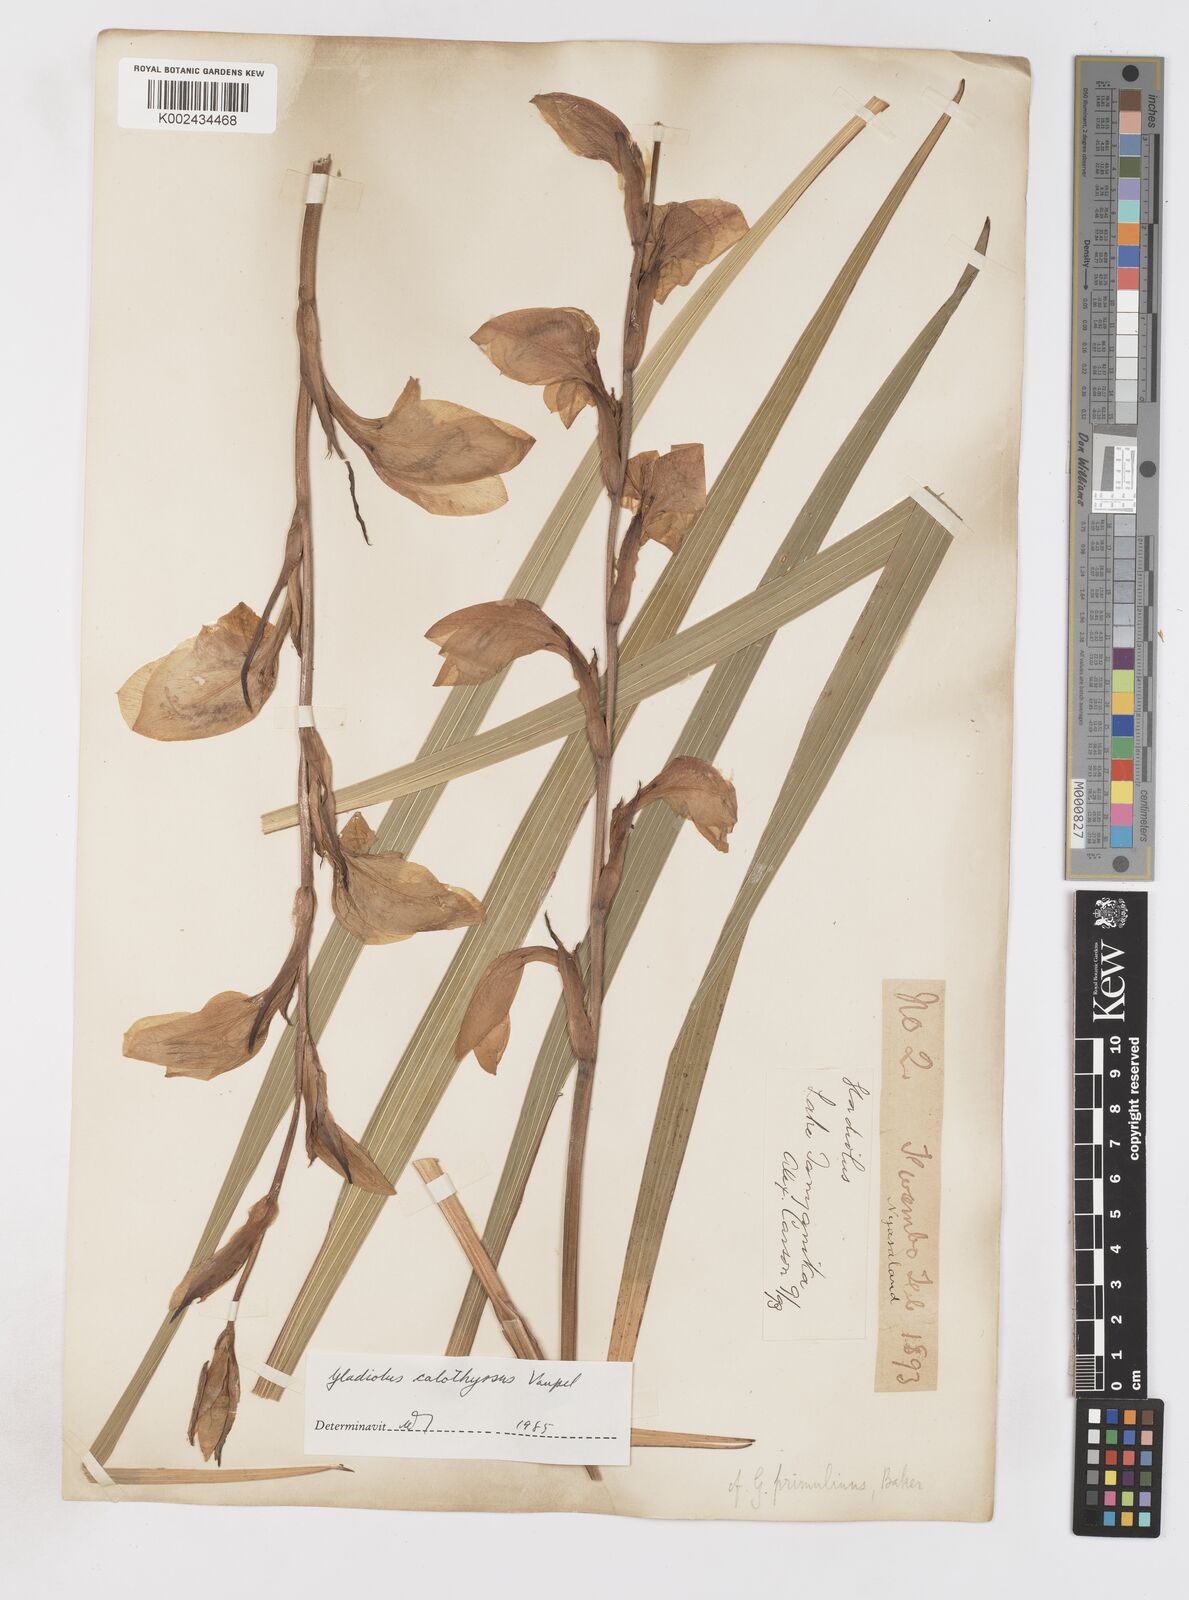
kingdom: Plantae
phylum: Tracheophyta
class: Liliopsida
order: Asparagales
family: Iridaceae
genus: Gladiolus
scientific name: Gladiolus dalenii
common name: Cornflag
